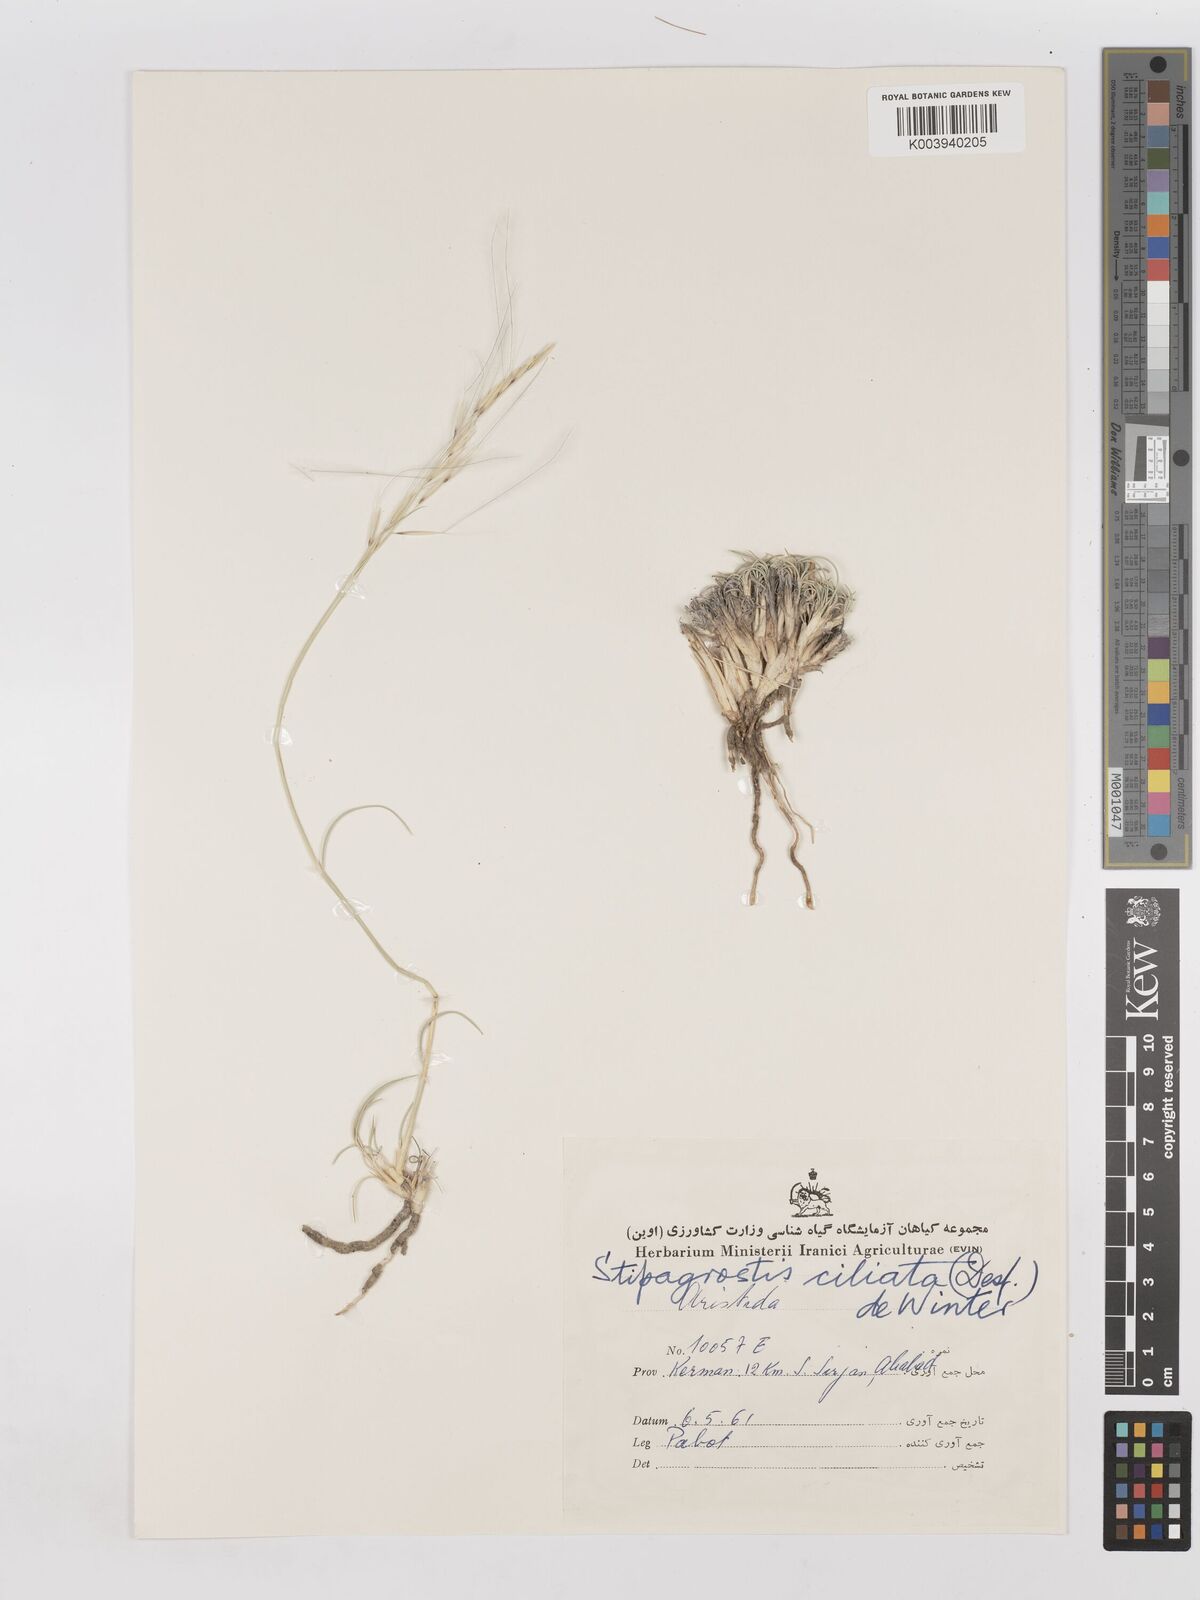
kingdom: Plantae
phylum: Tracheophyta
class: Liliopsida
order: Poales
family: Poaceae
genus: Stipagrostis
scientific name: Stipagrostis ciliata
